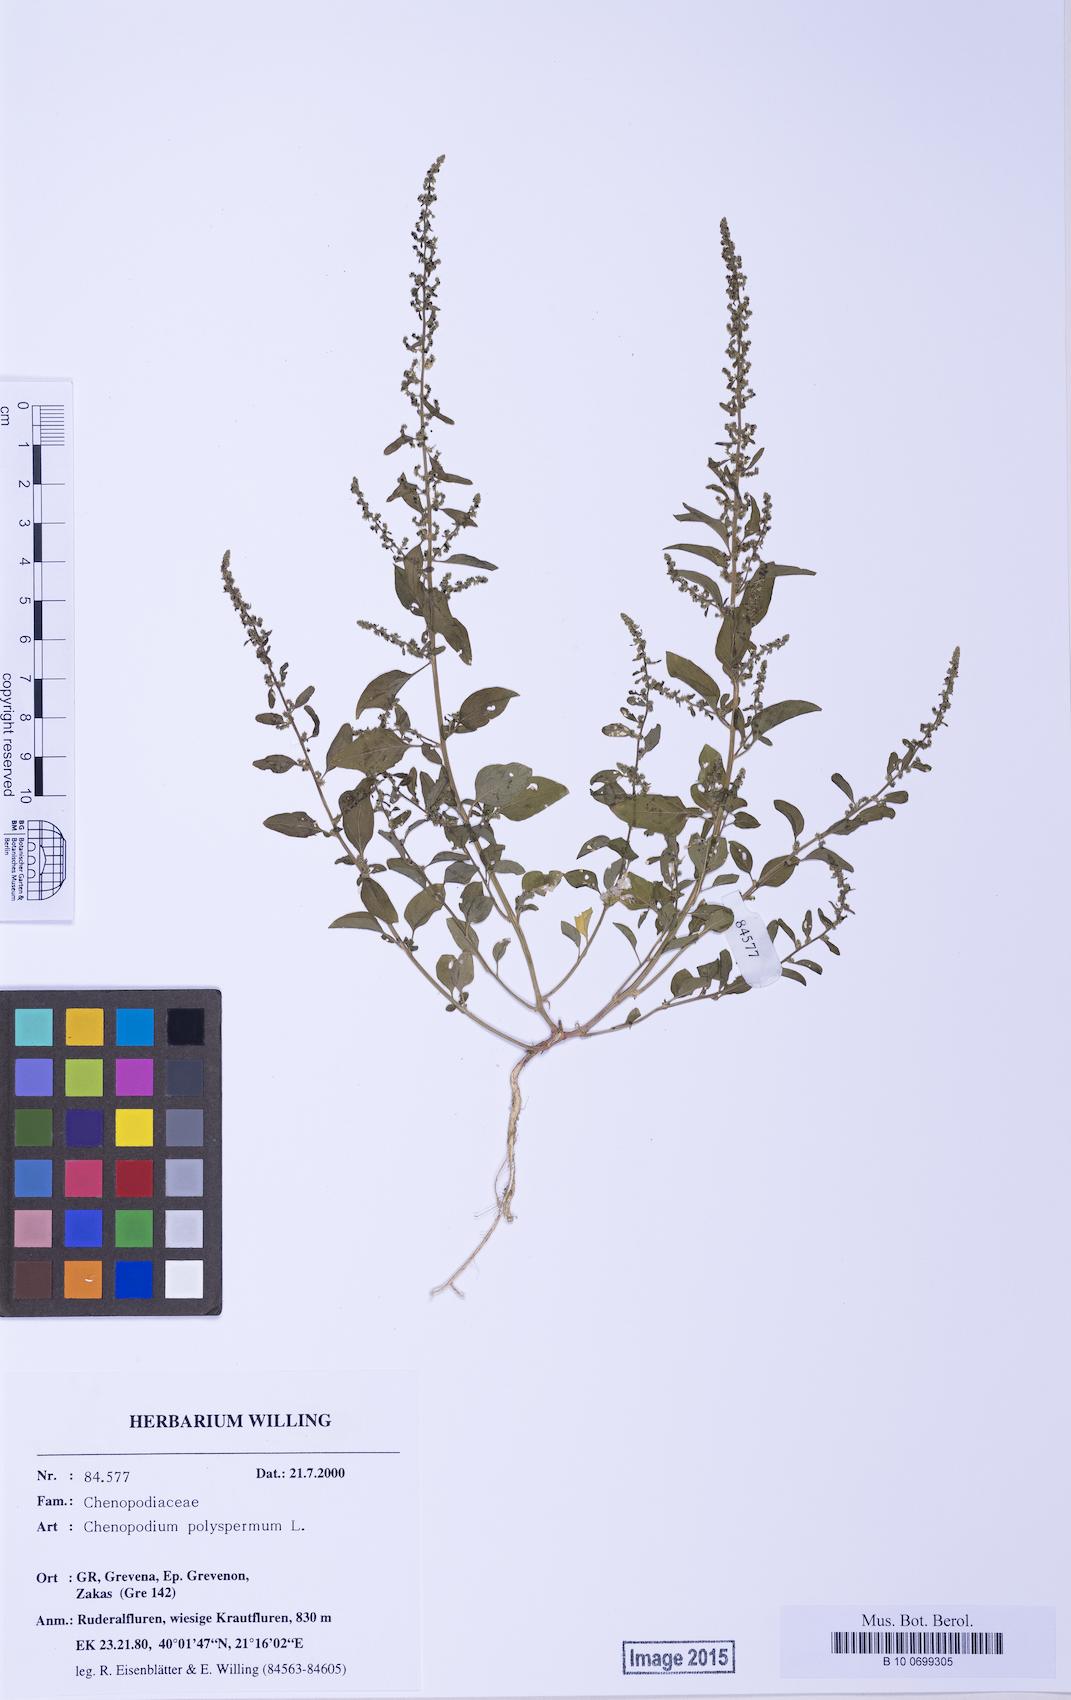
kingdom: Plantae
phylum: Tracheophyta
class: Magnoliopsida
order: Caryophyllales
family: Amaranthaceae
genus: Lipandra
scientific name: Lipandra polysperma
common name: Many-seed goosefoot
